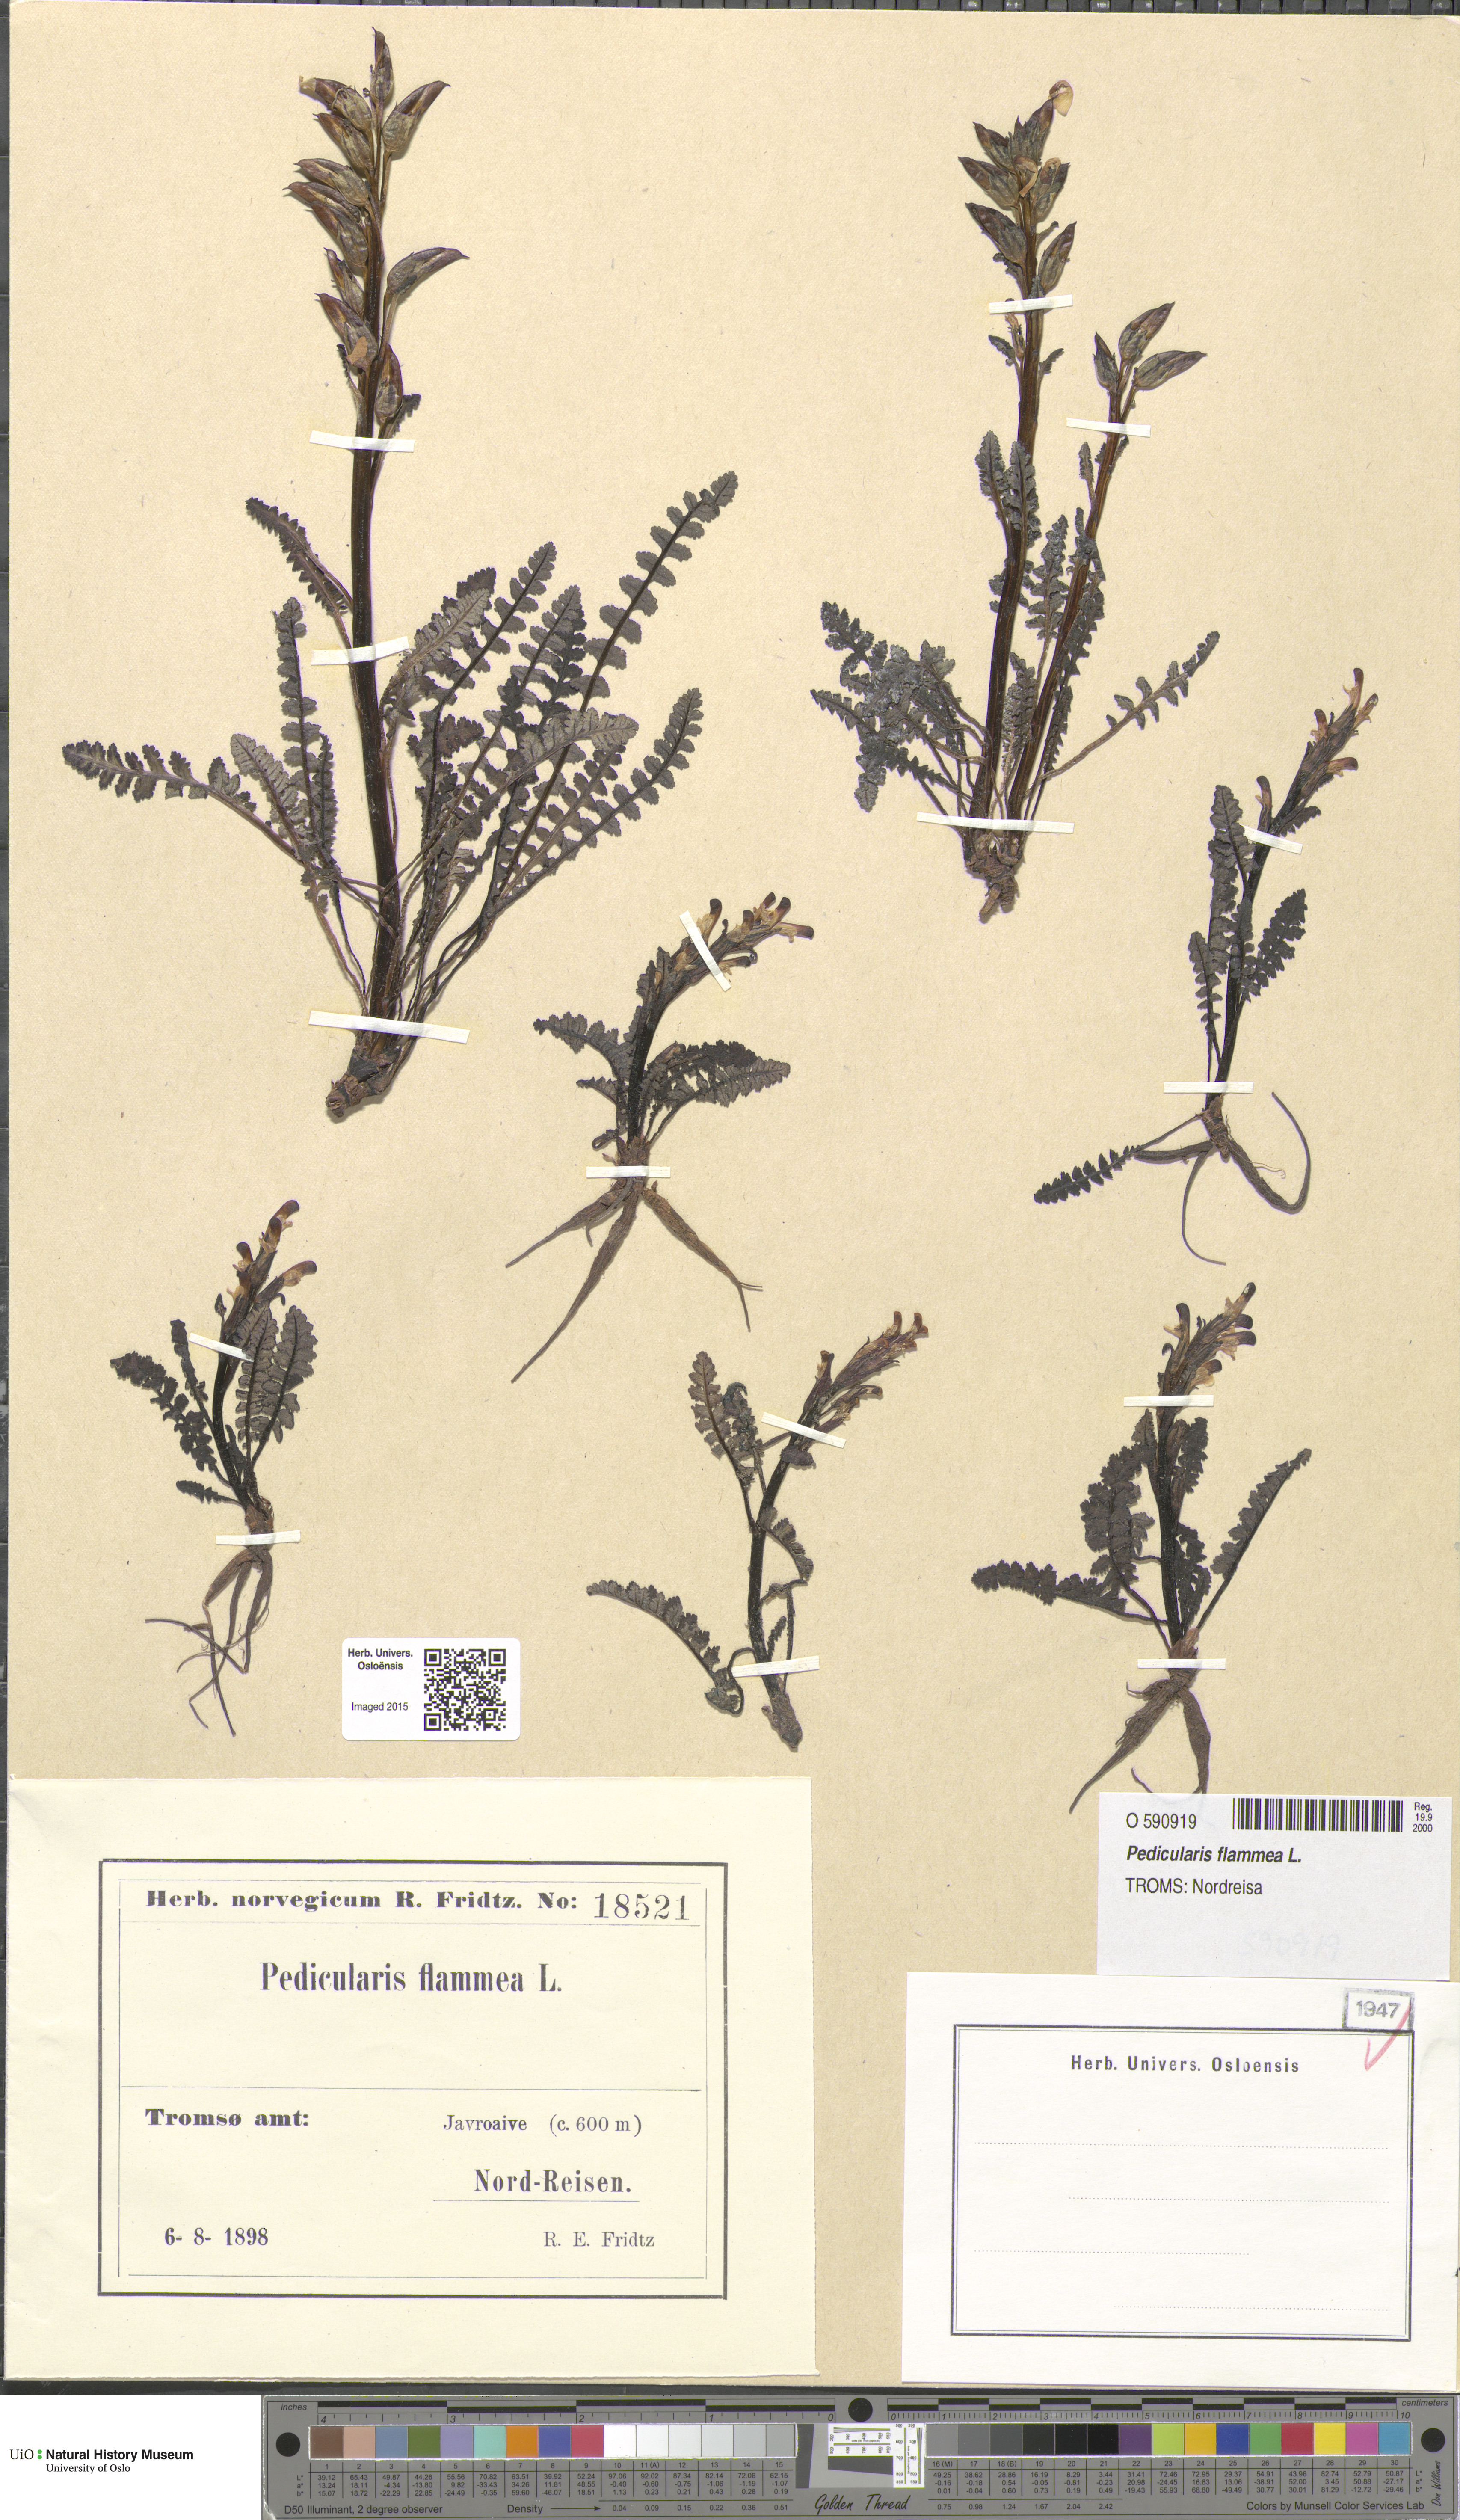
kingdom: Plantae
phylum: Tracheophyta
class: Magnoliopsida
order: Lamiales
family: Orobanchaceae
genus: Pedicularis
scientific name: Pedicularis flammea
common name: Flame-coloured lousewort
